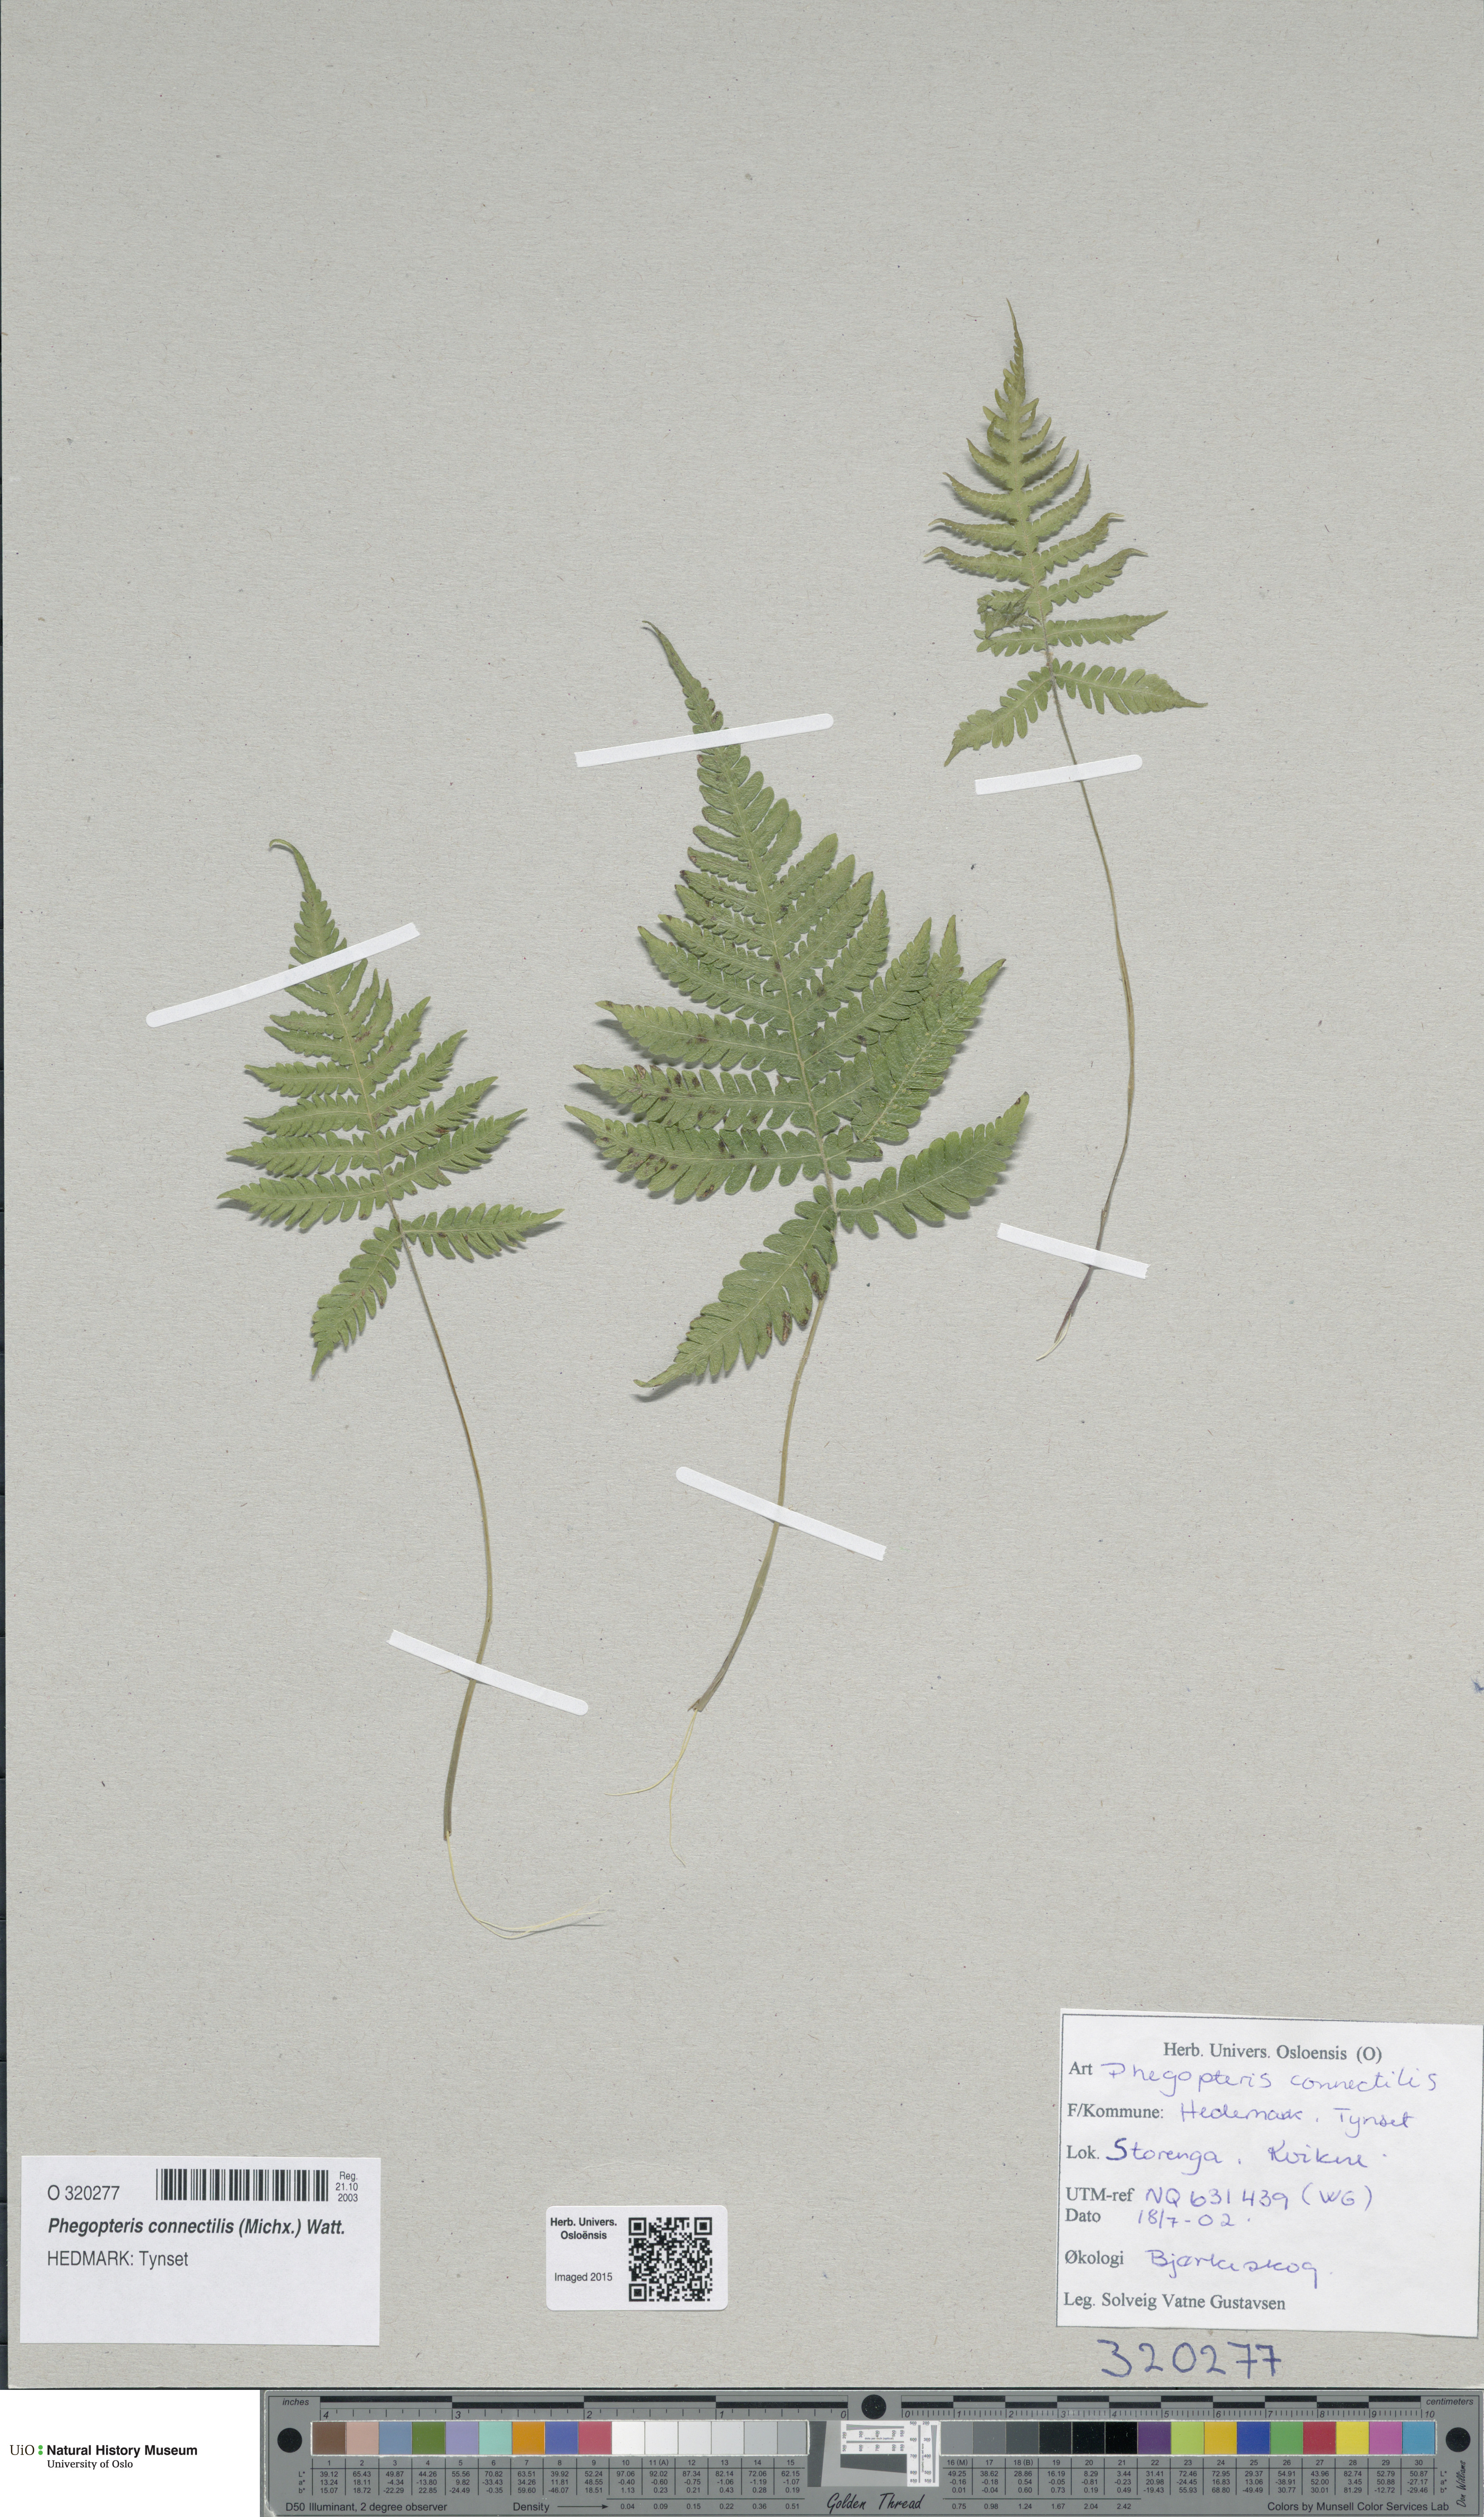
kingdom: Plantae
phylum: Tracheophyta
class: Polypodiopsida
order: Polypodiales
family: Thelypteridaceae
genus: Phegopteris
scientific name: Phegopteris connectilis
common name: Beech fern
